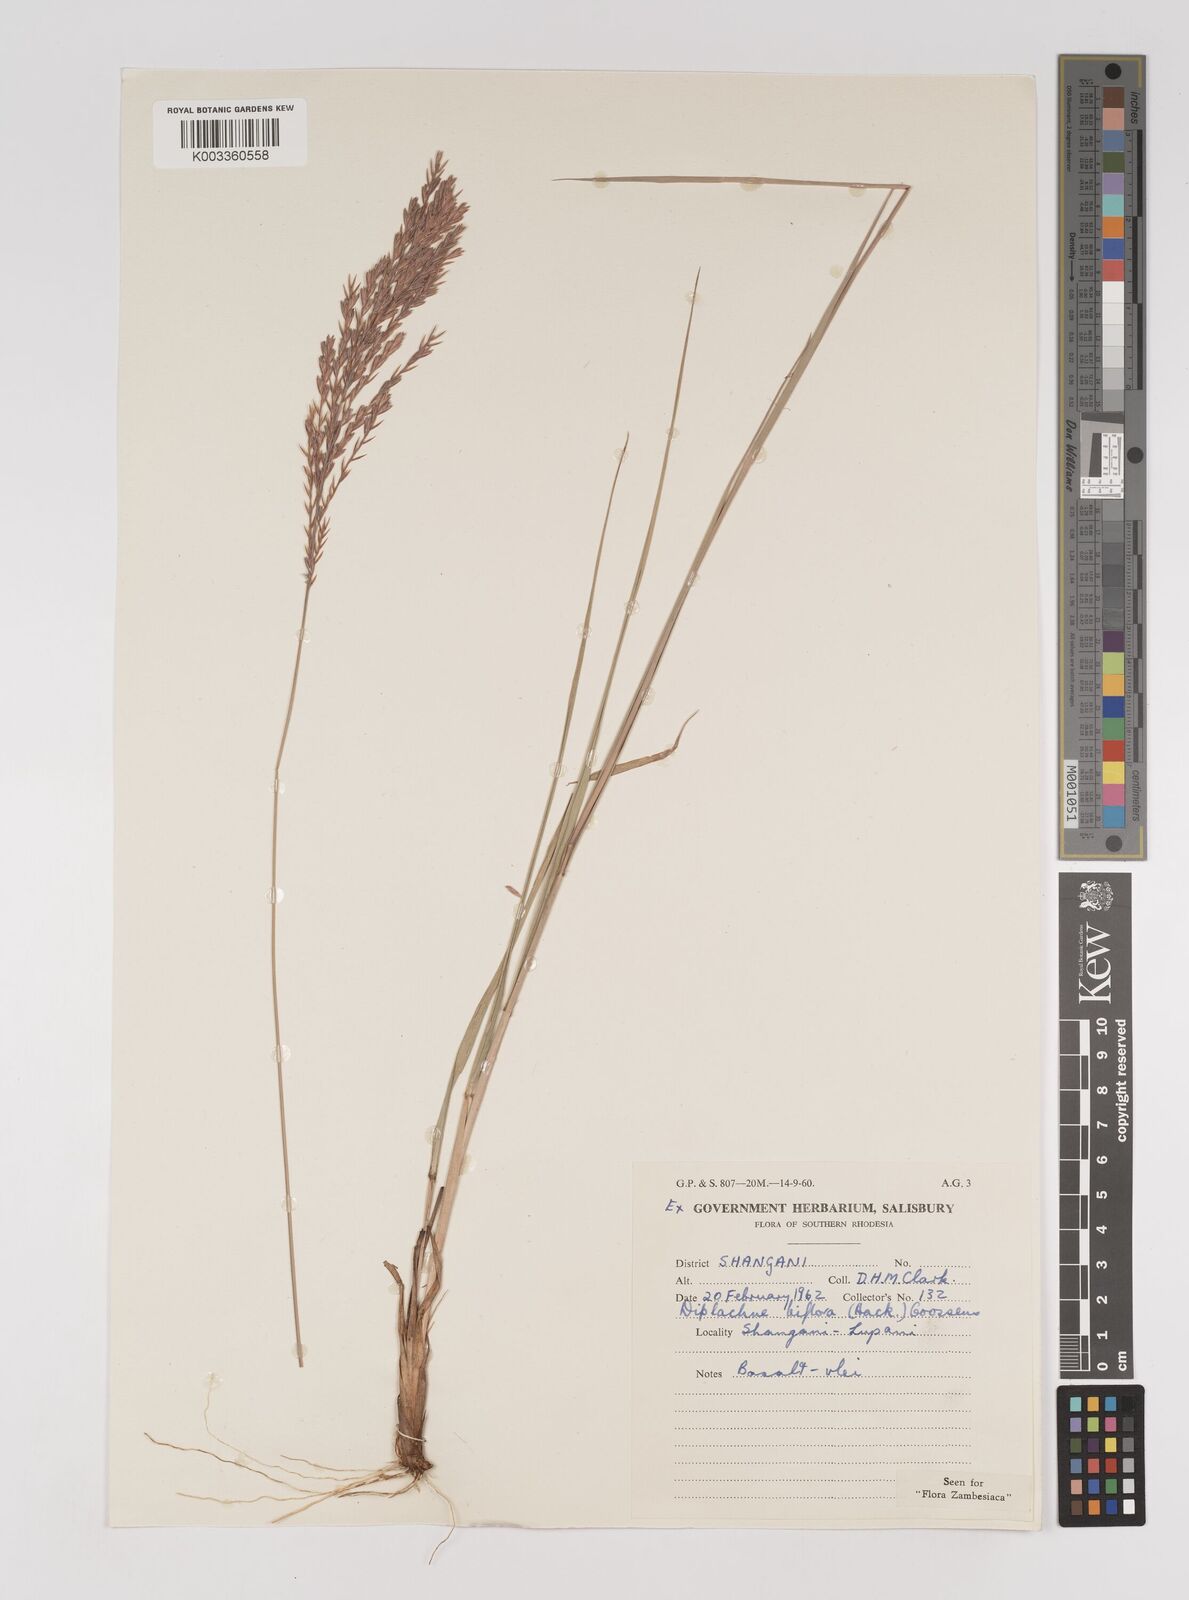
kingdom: Plantae
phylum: Tracheophyta
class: Liliopsida
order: Poales
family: Poaceae
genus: Bewsia
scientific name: Bewsia biflora
